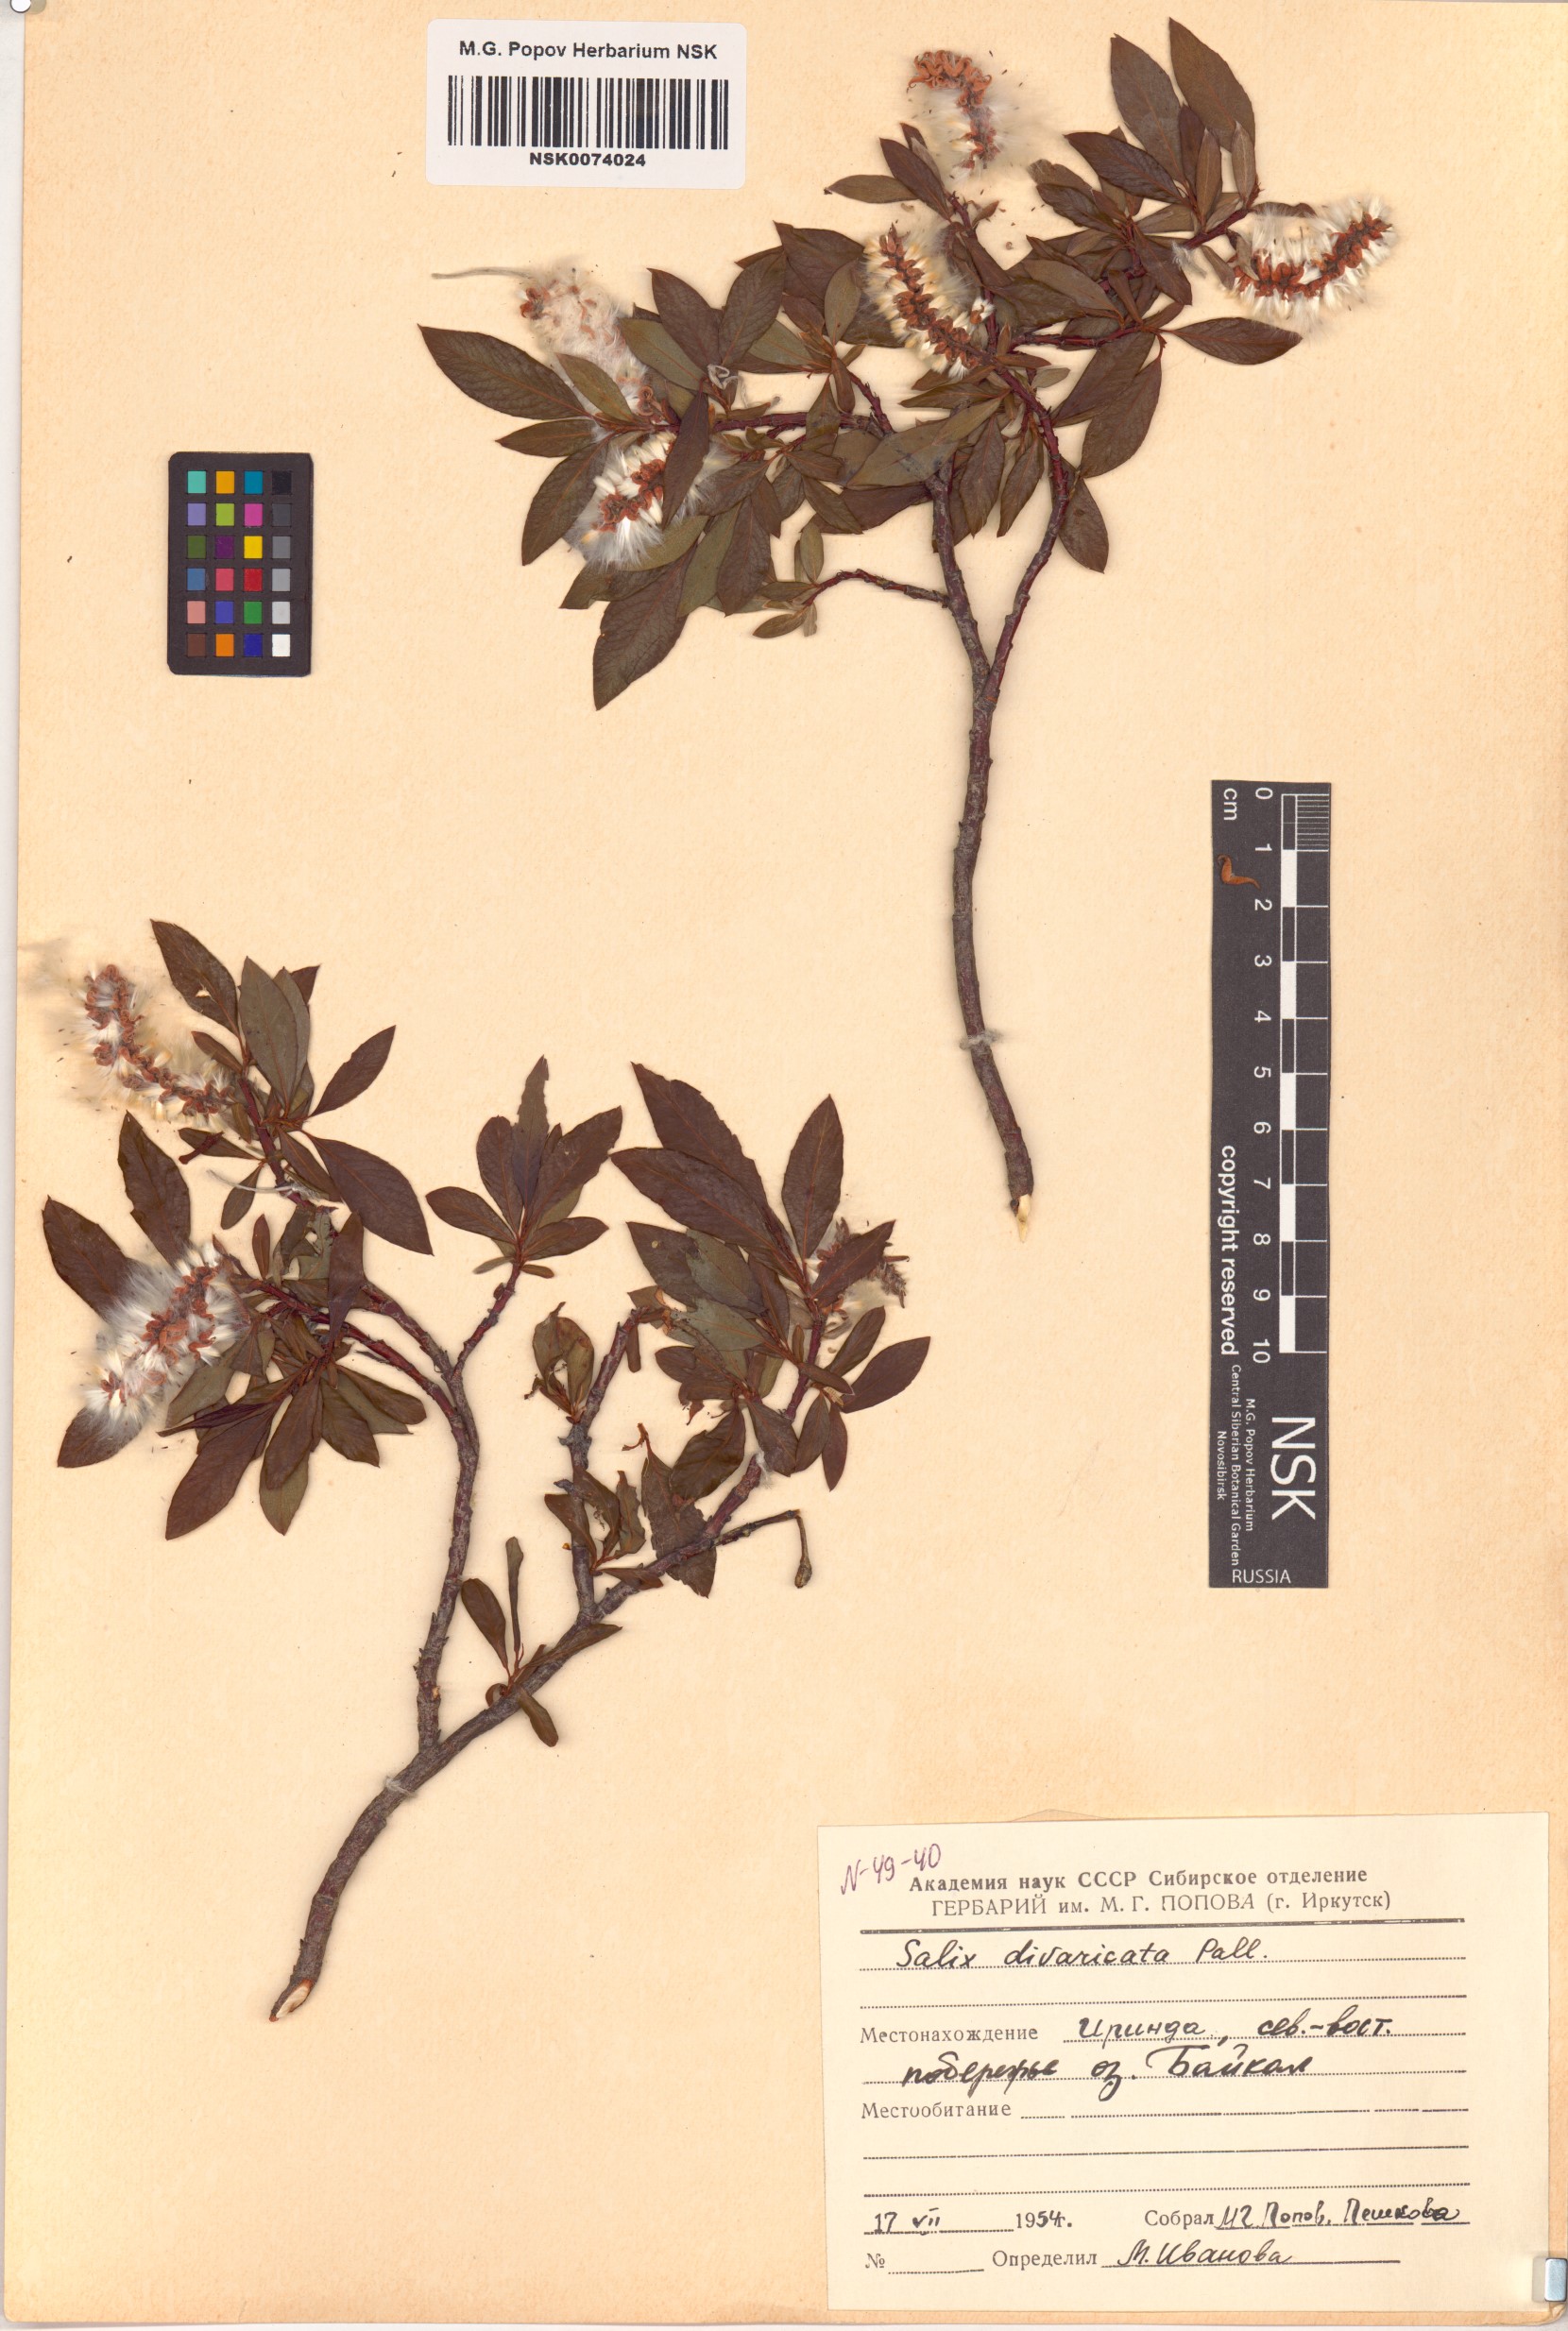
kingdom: Plantae
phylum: Tracheophyta
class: Magnoliopsida
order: Malpighiales
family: Salicaceae
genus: Salix
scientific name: Salix divaricata
